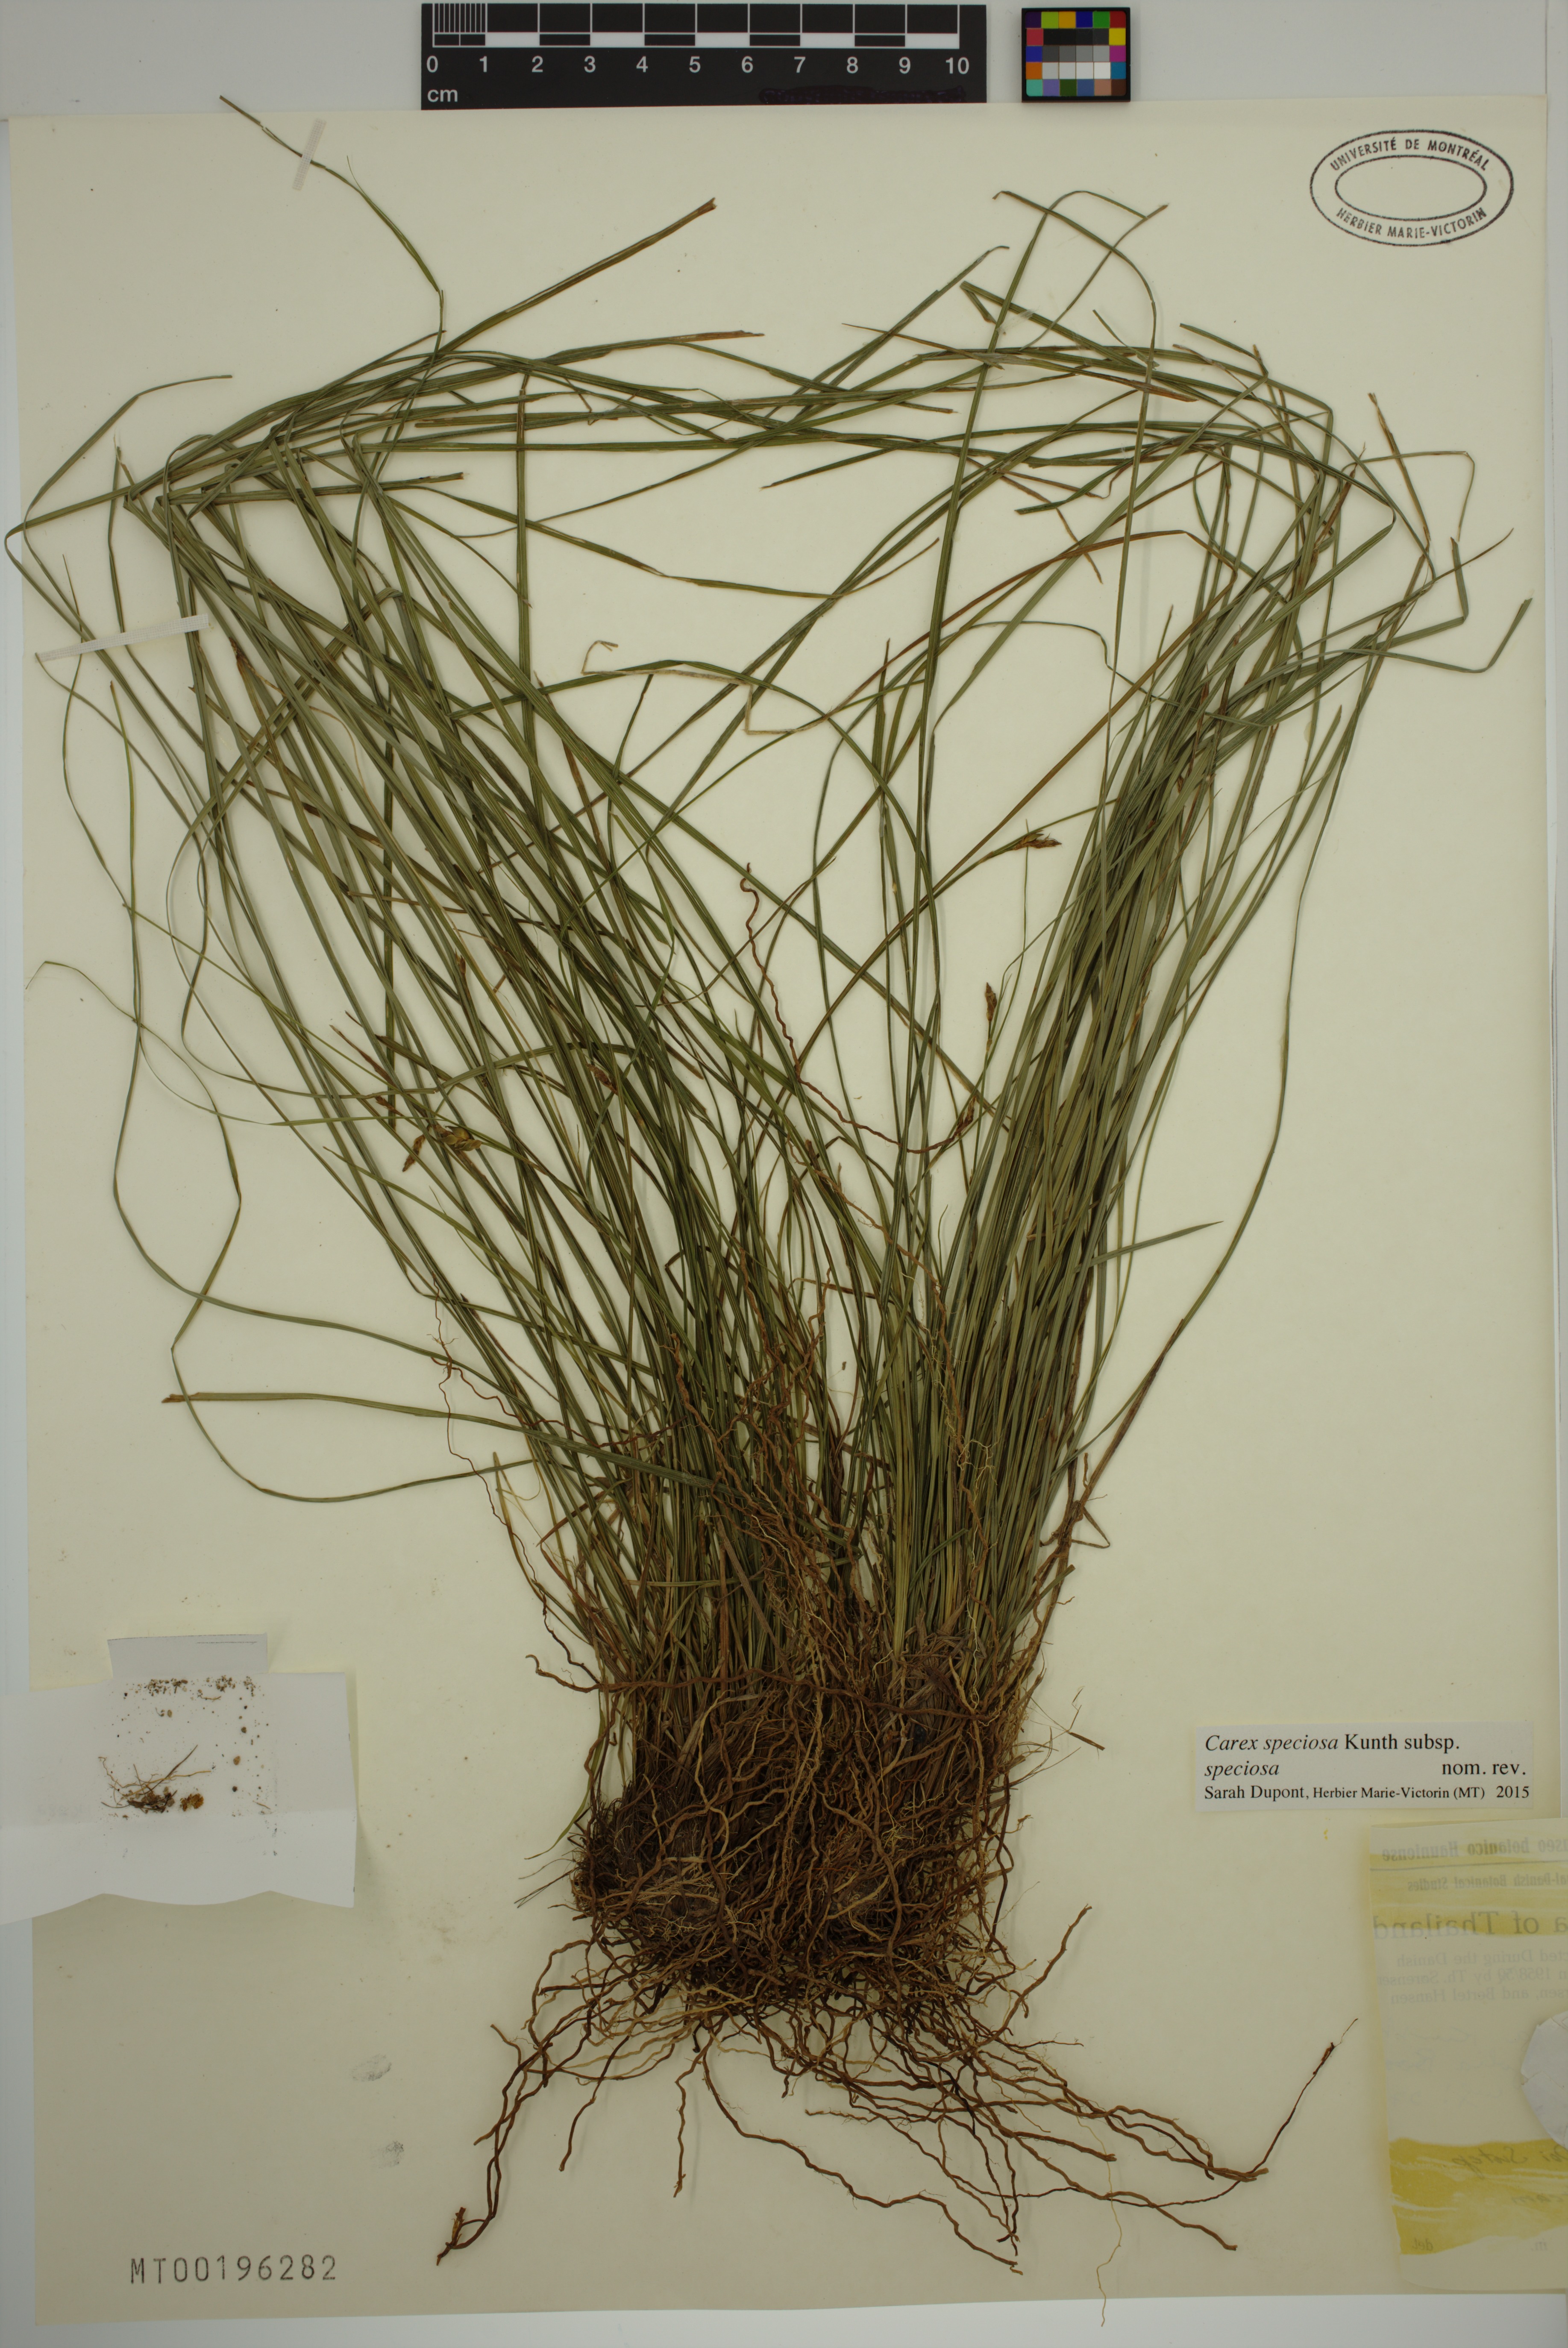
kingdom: Plantae
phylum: Tracheophyta
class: Liliopsida
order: Poales
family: Cyperaceae
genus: Carex
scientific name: Carex speciosa
